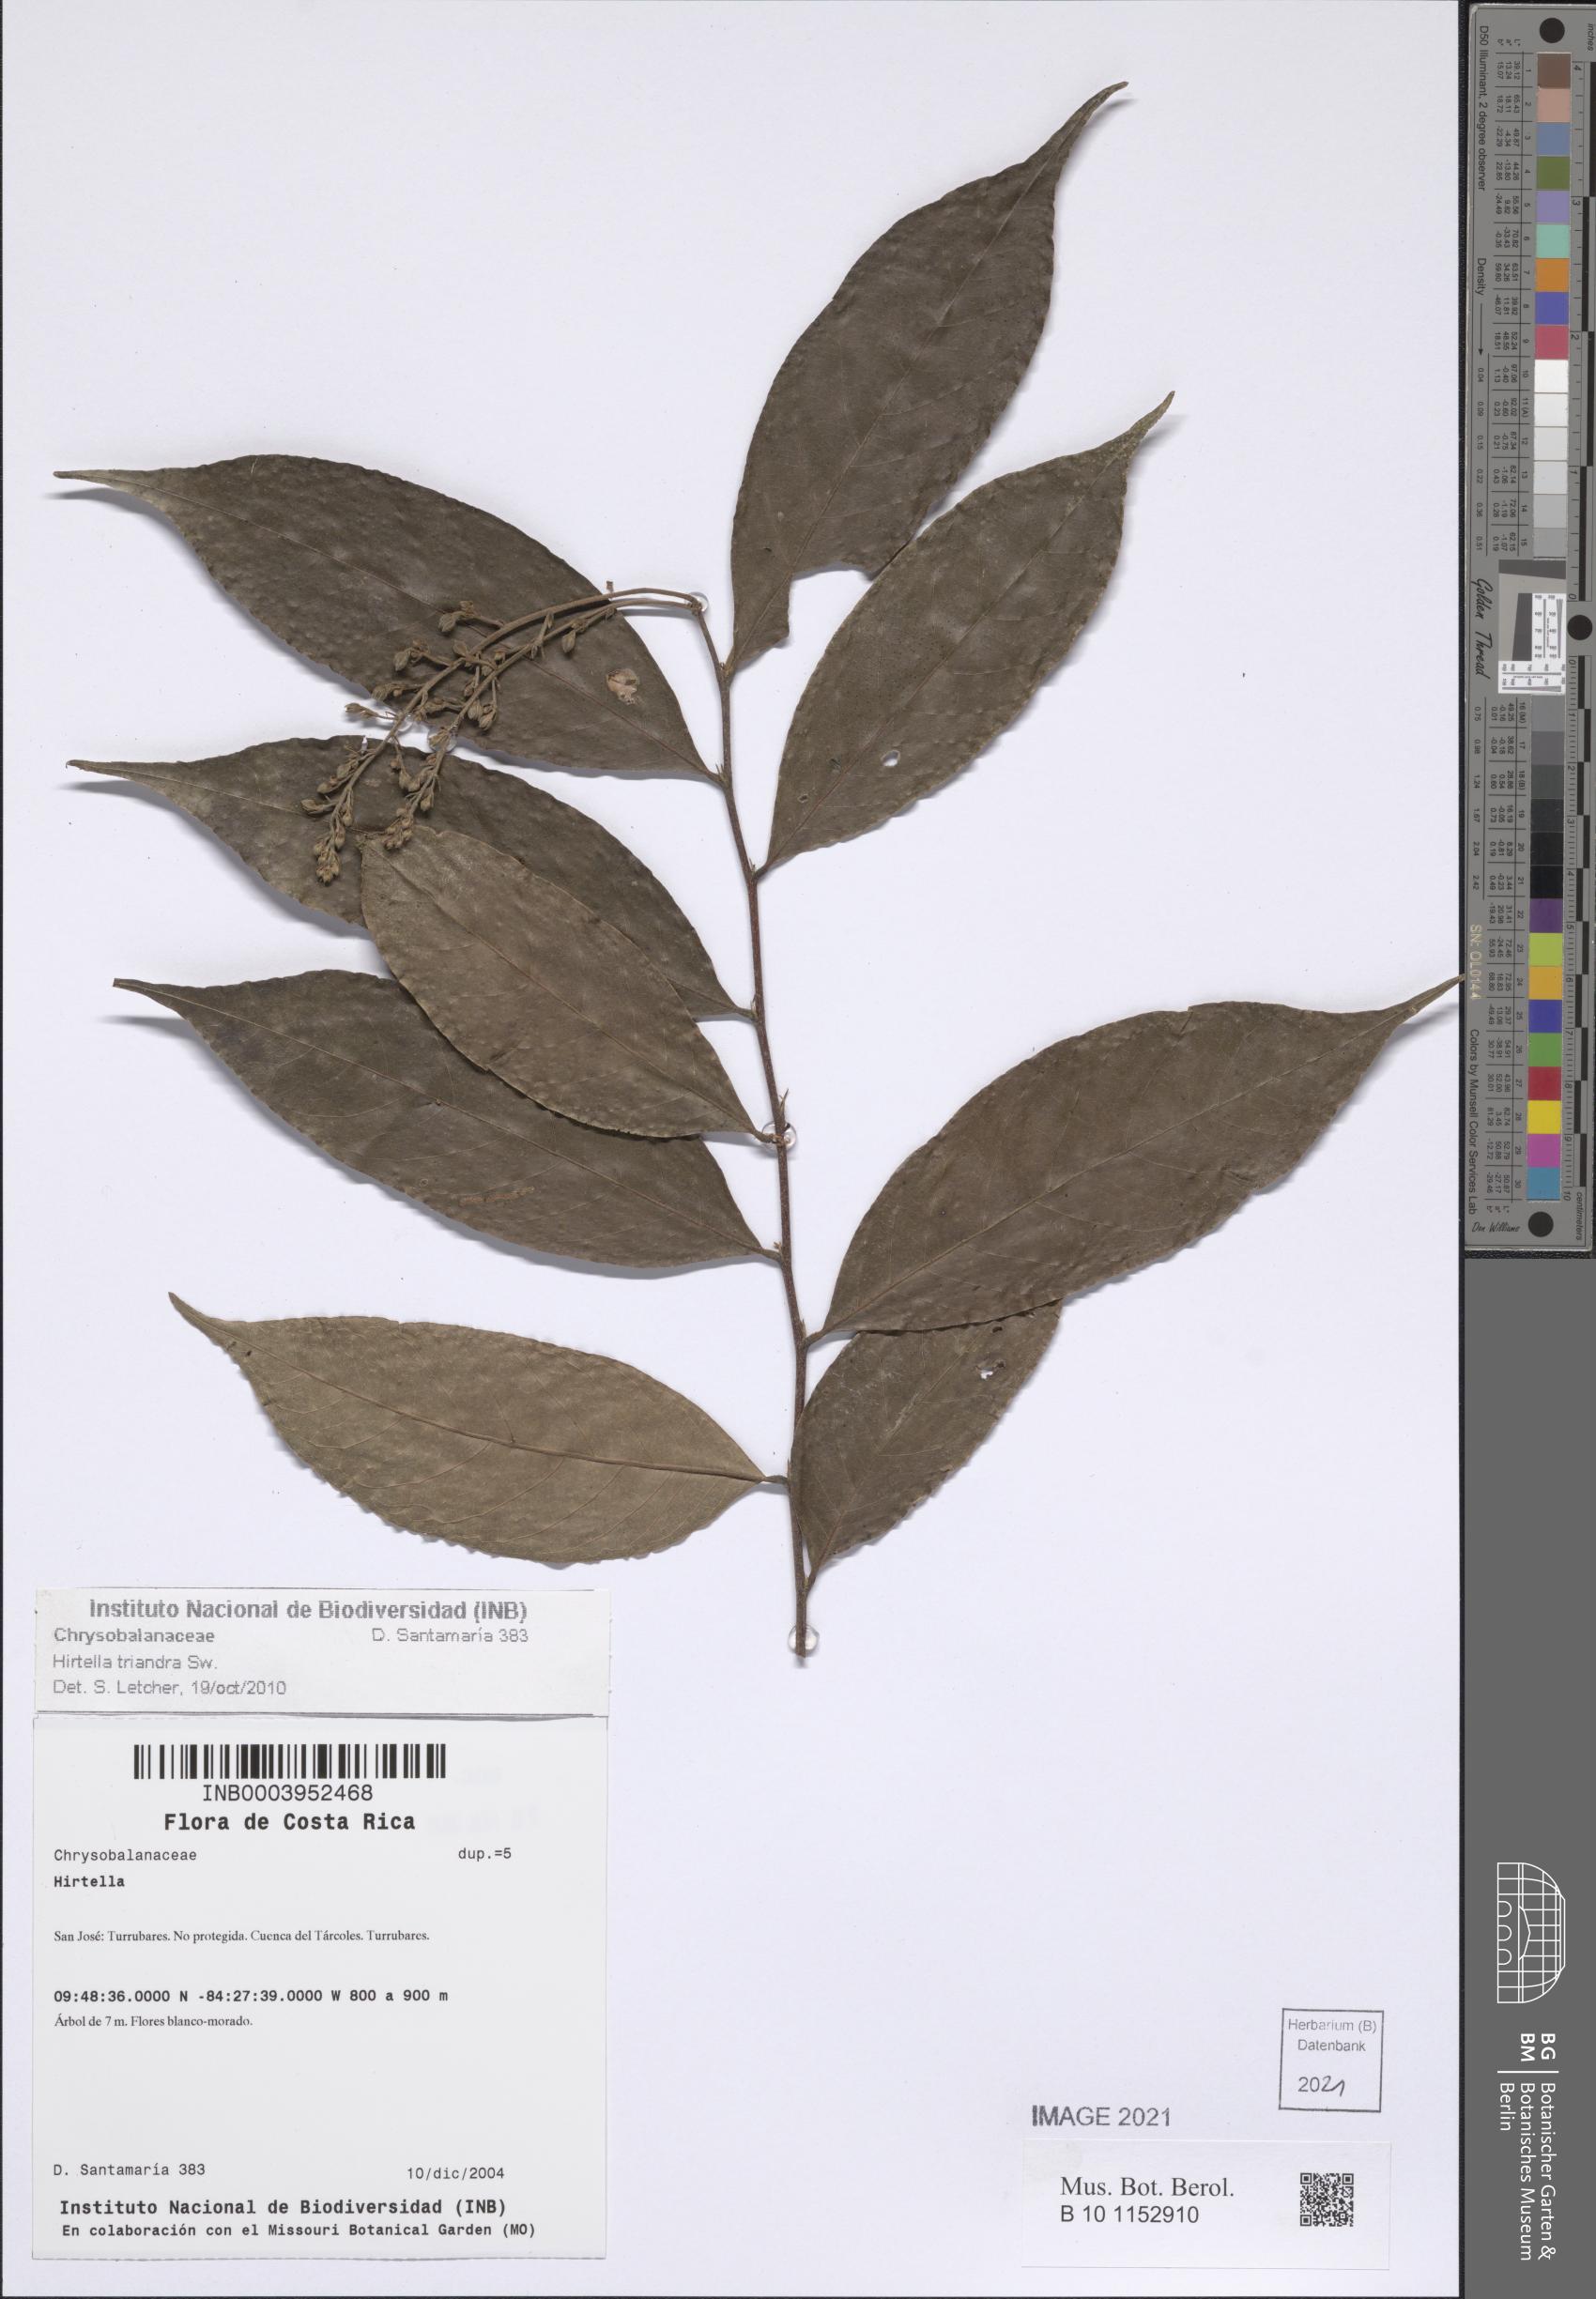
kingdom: Plantae
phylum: Tracheophyta
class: Magnoliopsida
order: Malpighiales
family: Chrysobalanaceae
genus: Hirtella
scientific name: Hirtella triandra
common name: Hairy plum
